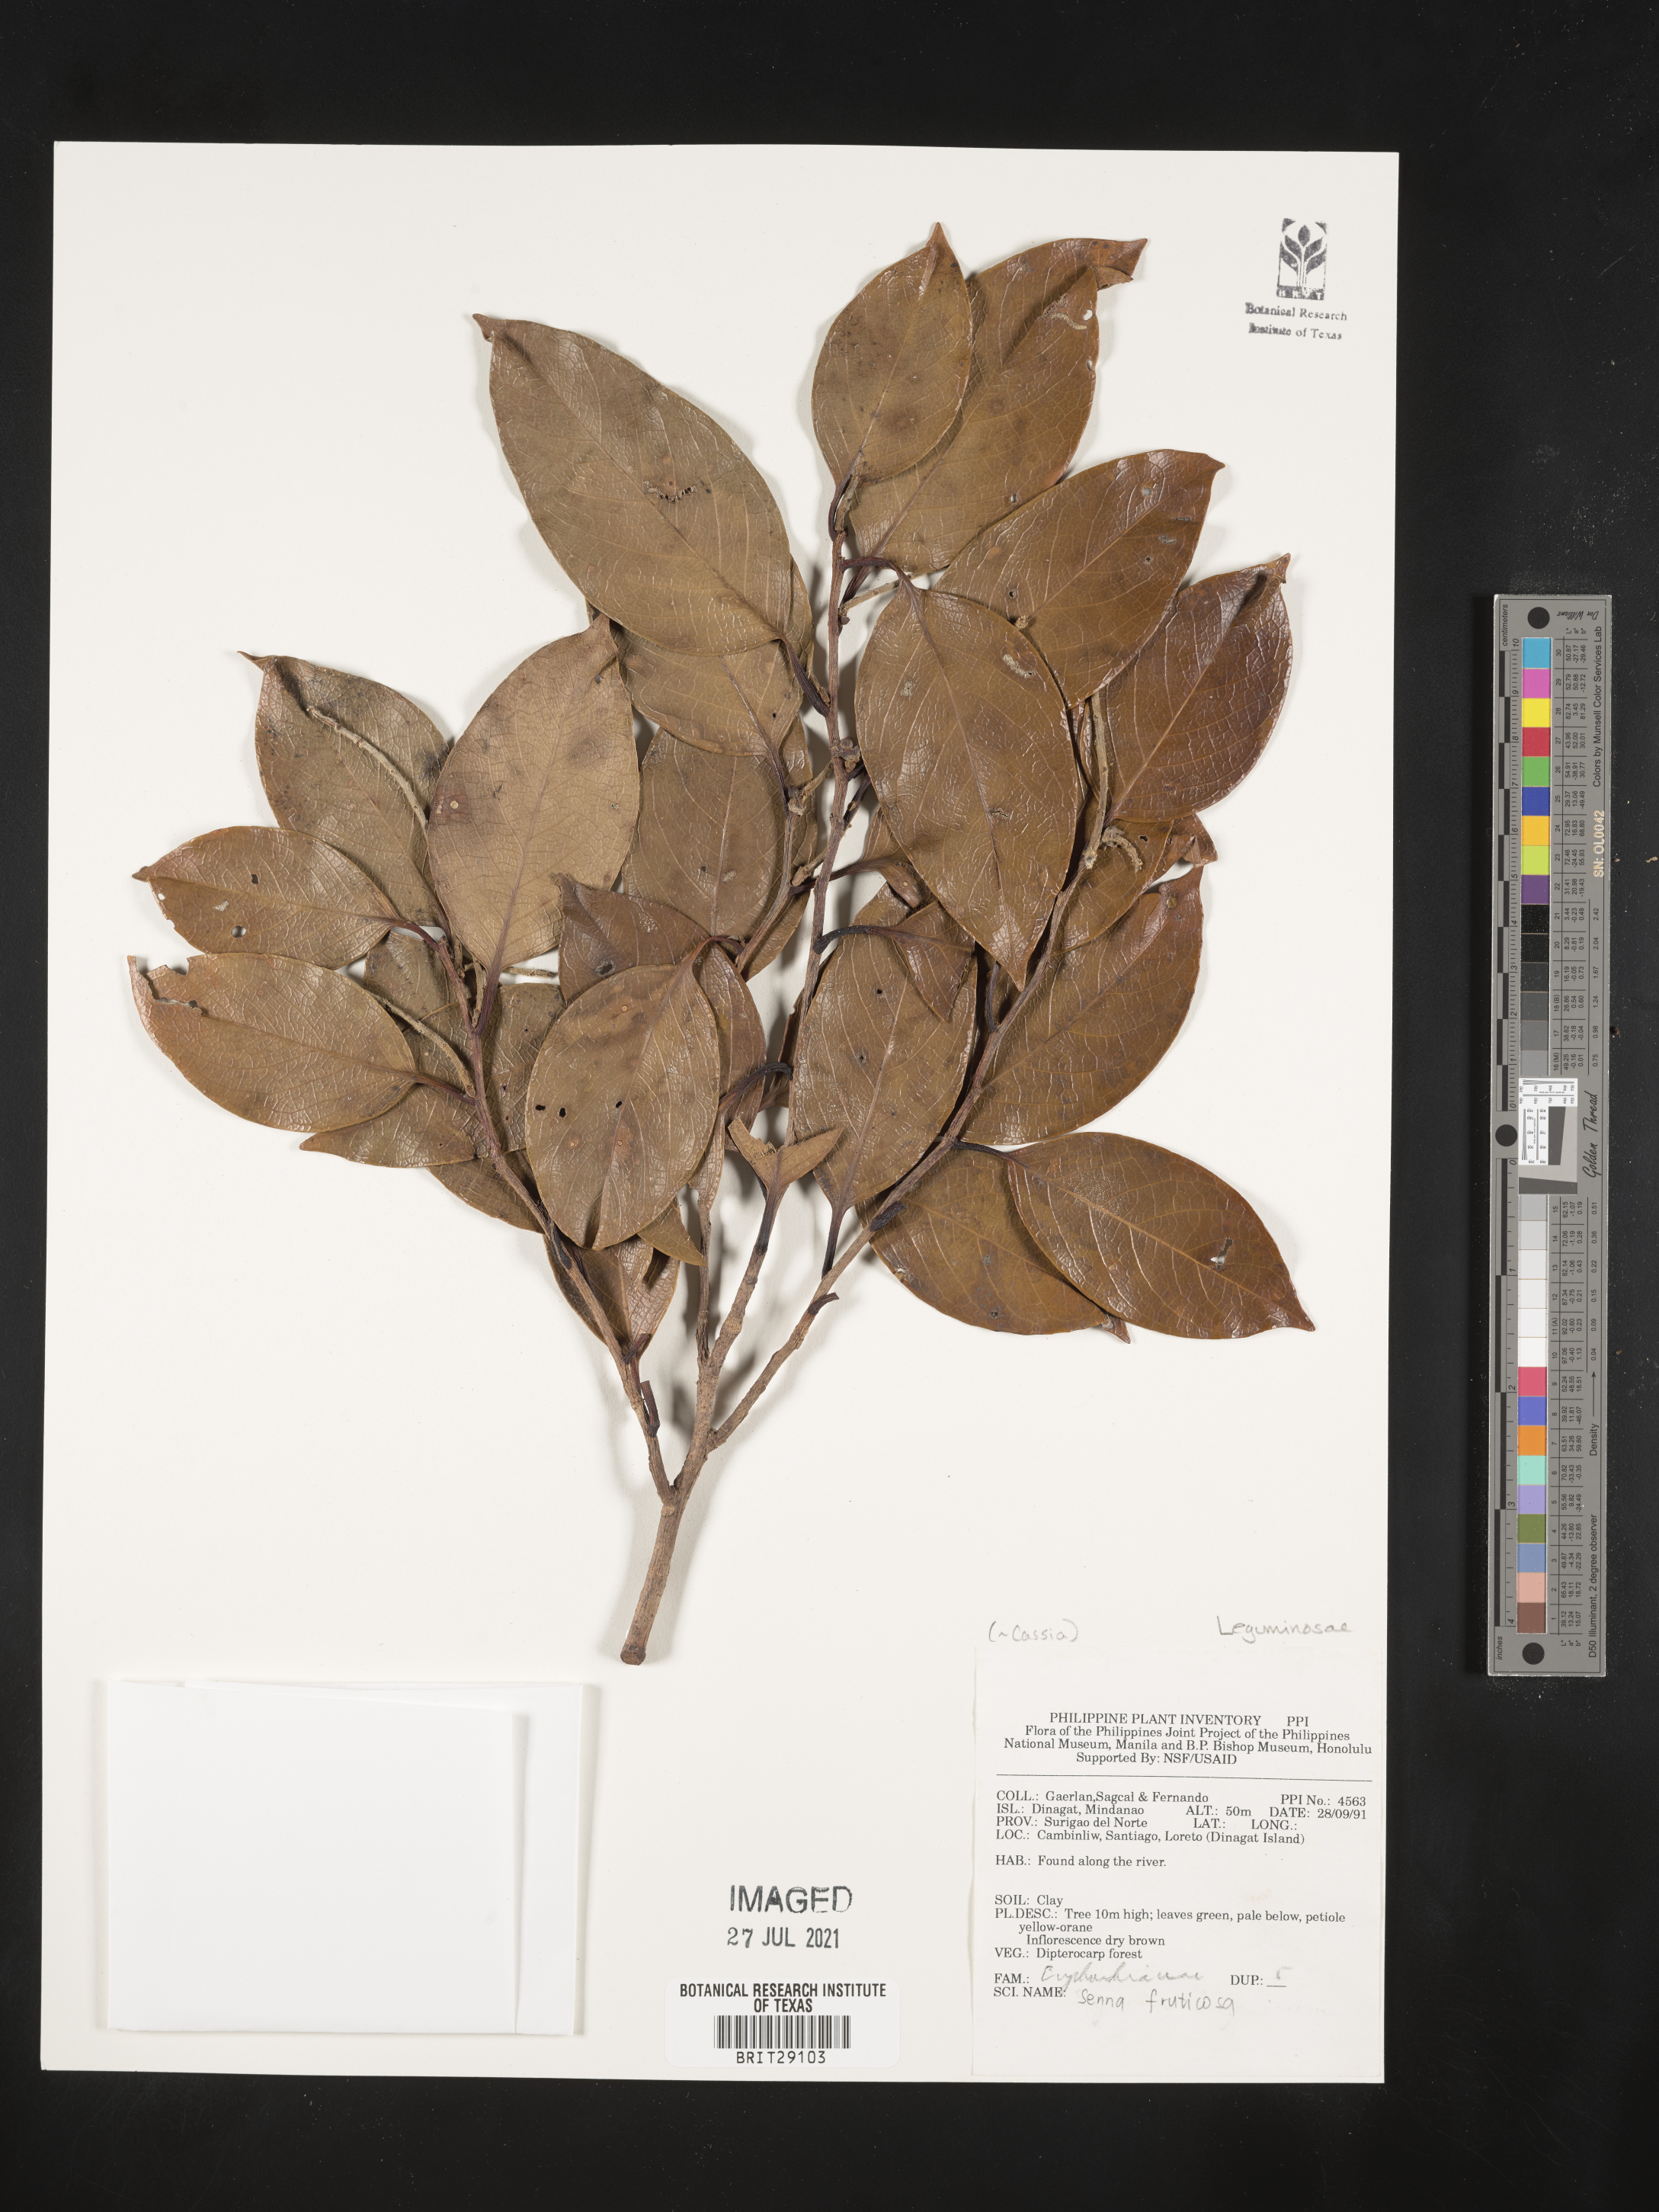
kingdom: Plantae
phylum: Tracheophyta
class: Magnoliopsida
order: Fabales
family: Fabaceae
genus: Senna
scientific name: Senna fruticosa
